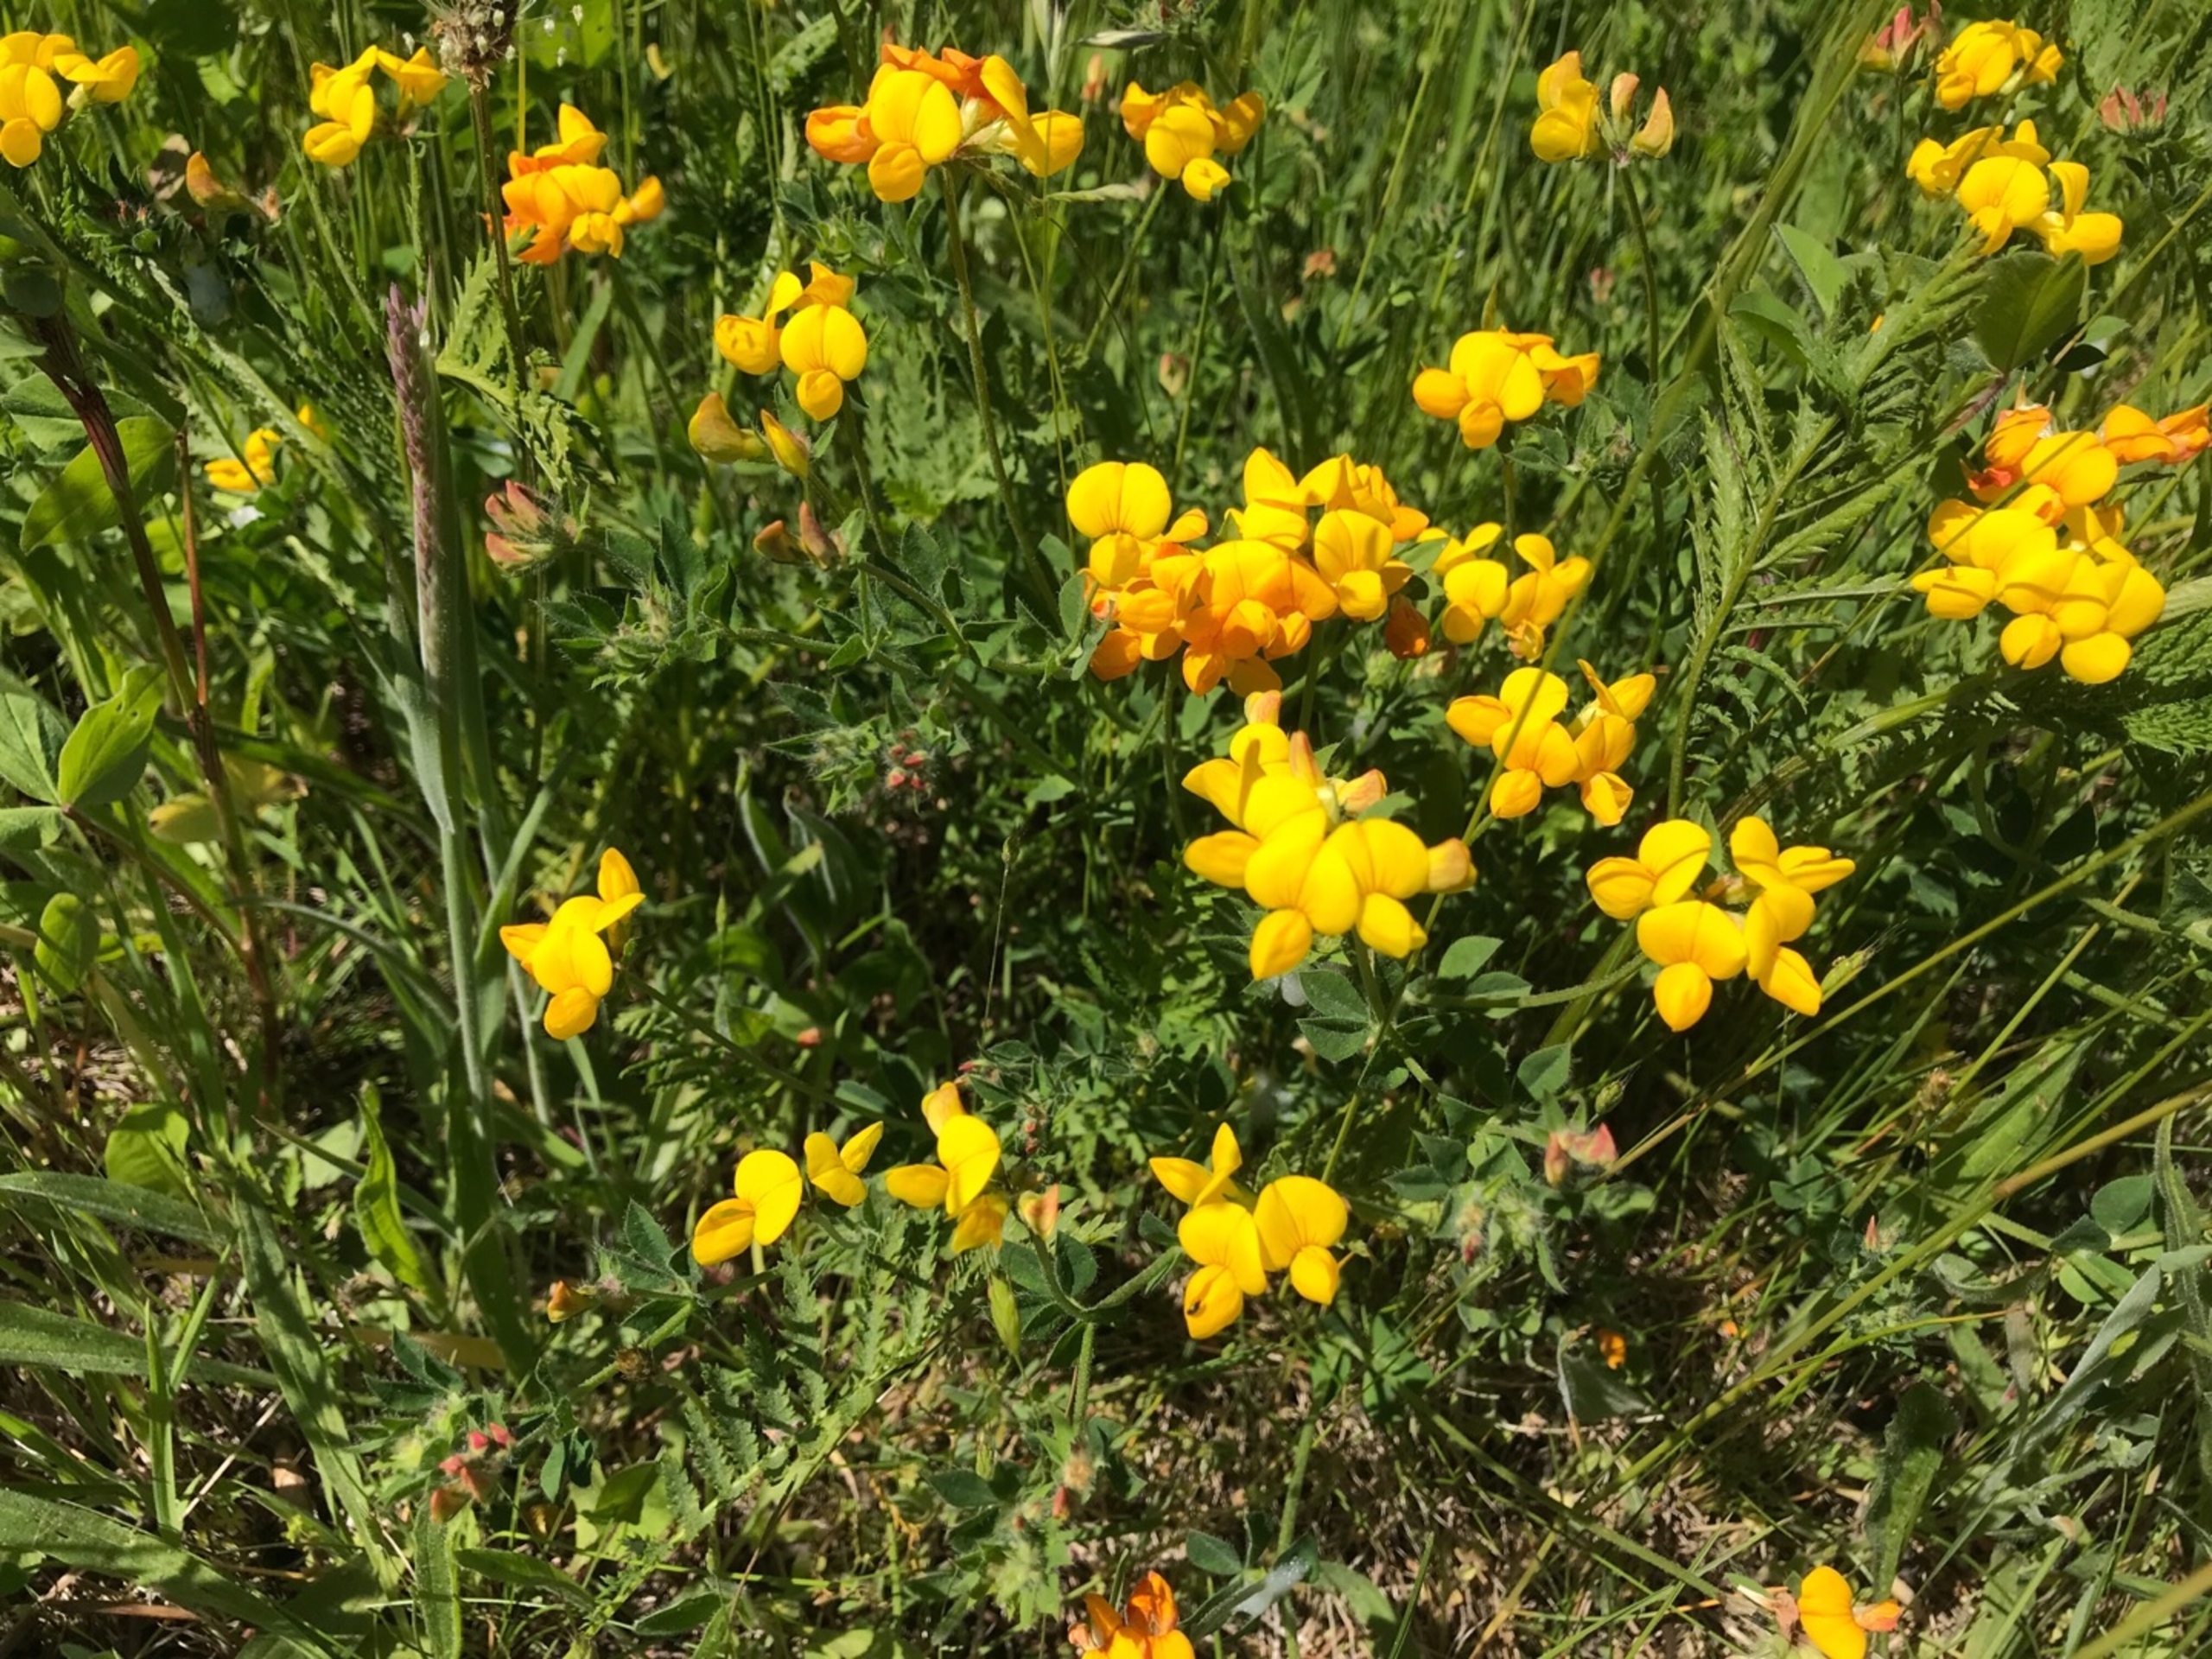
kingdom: Plantae
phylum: Tracheophyta
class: Magnoliopsida
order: Fabales
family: Fabaceae
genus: Lotus
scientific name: Lotus corniculatus
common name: Almindelig kællingetand
